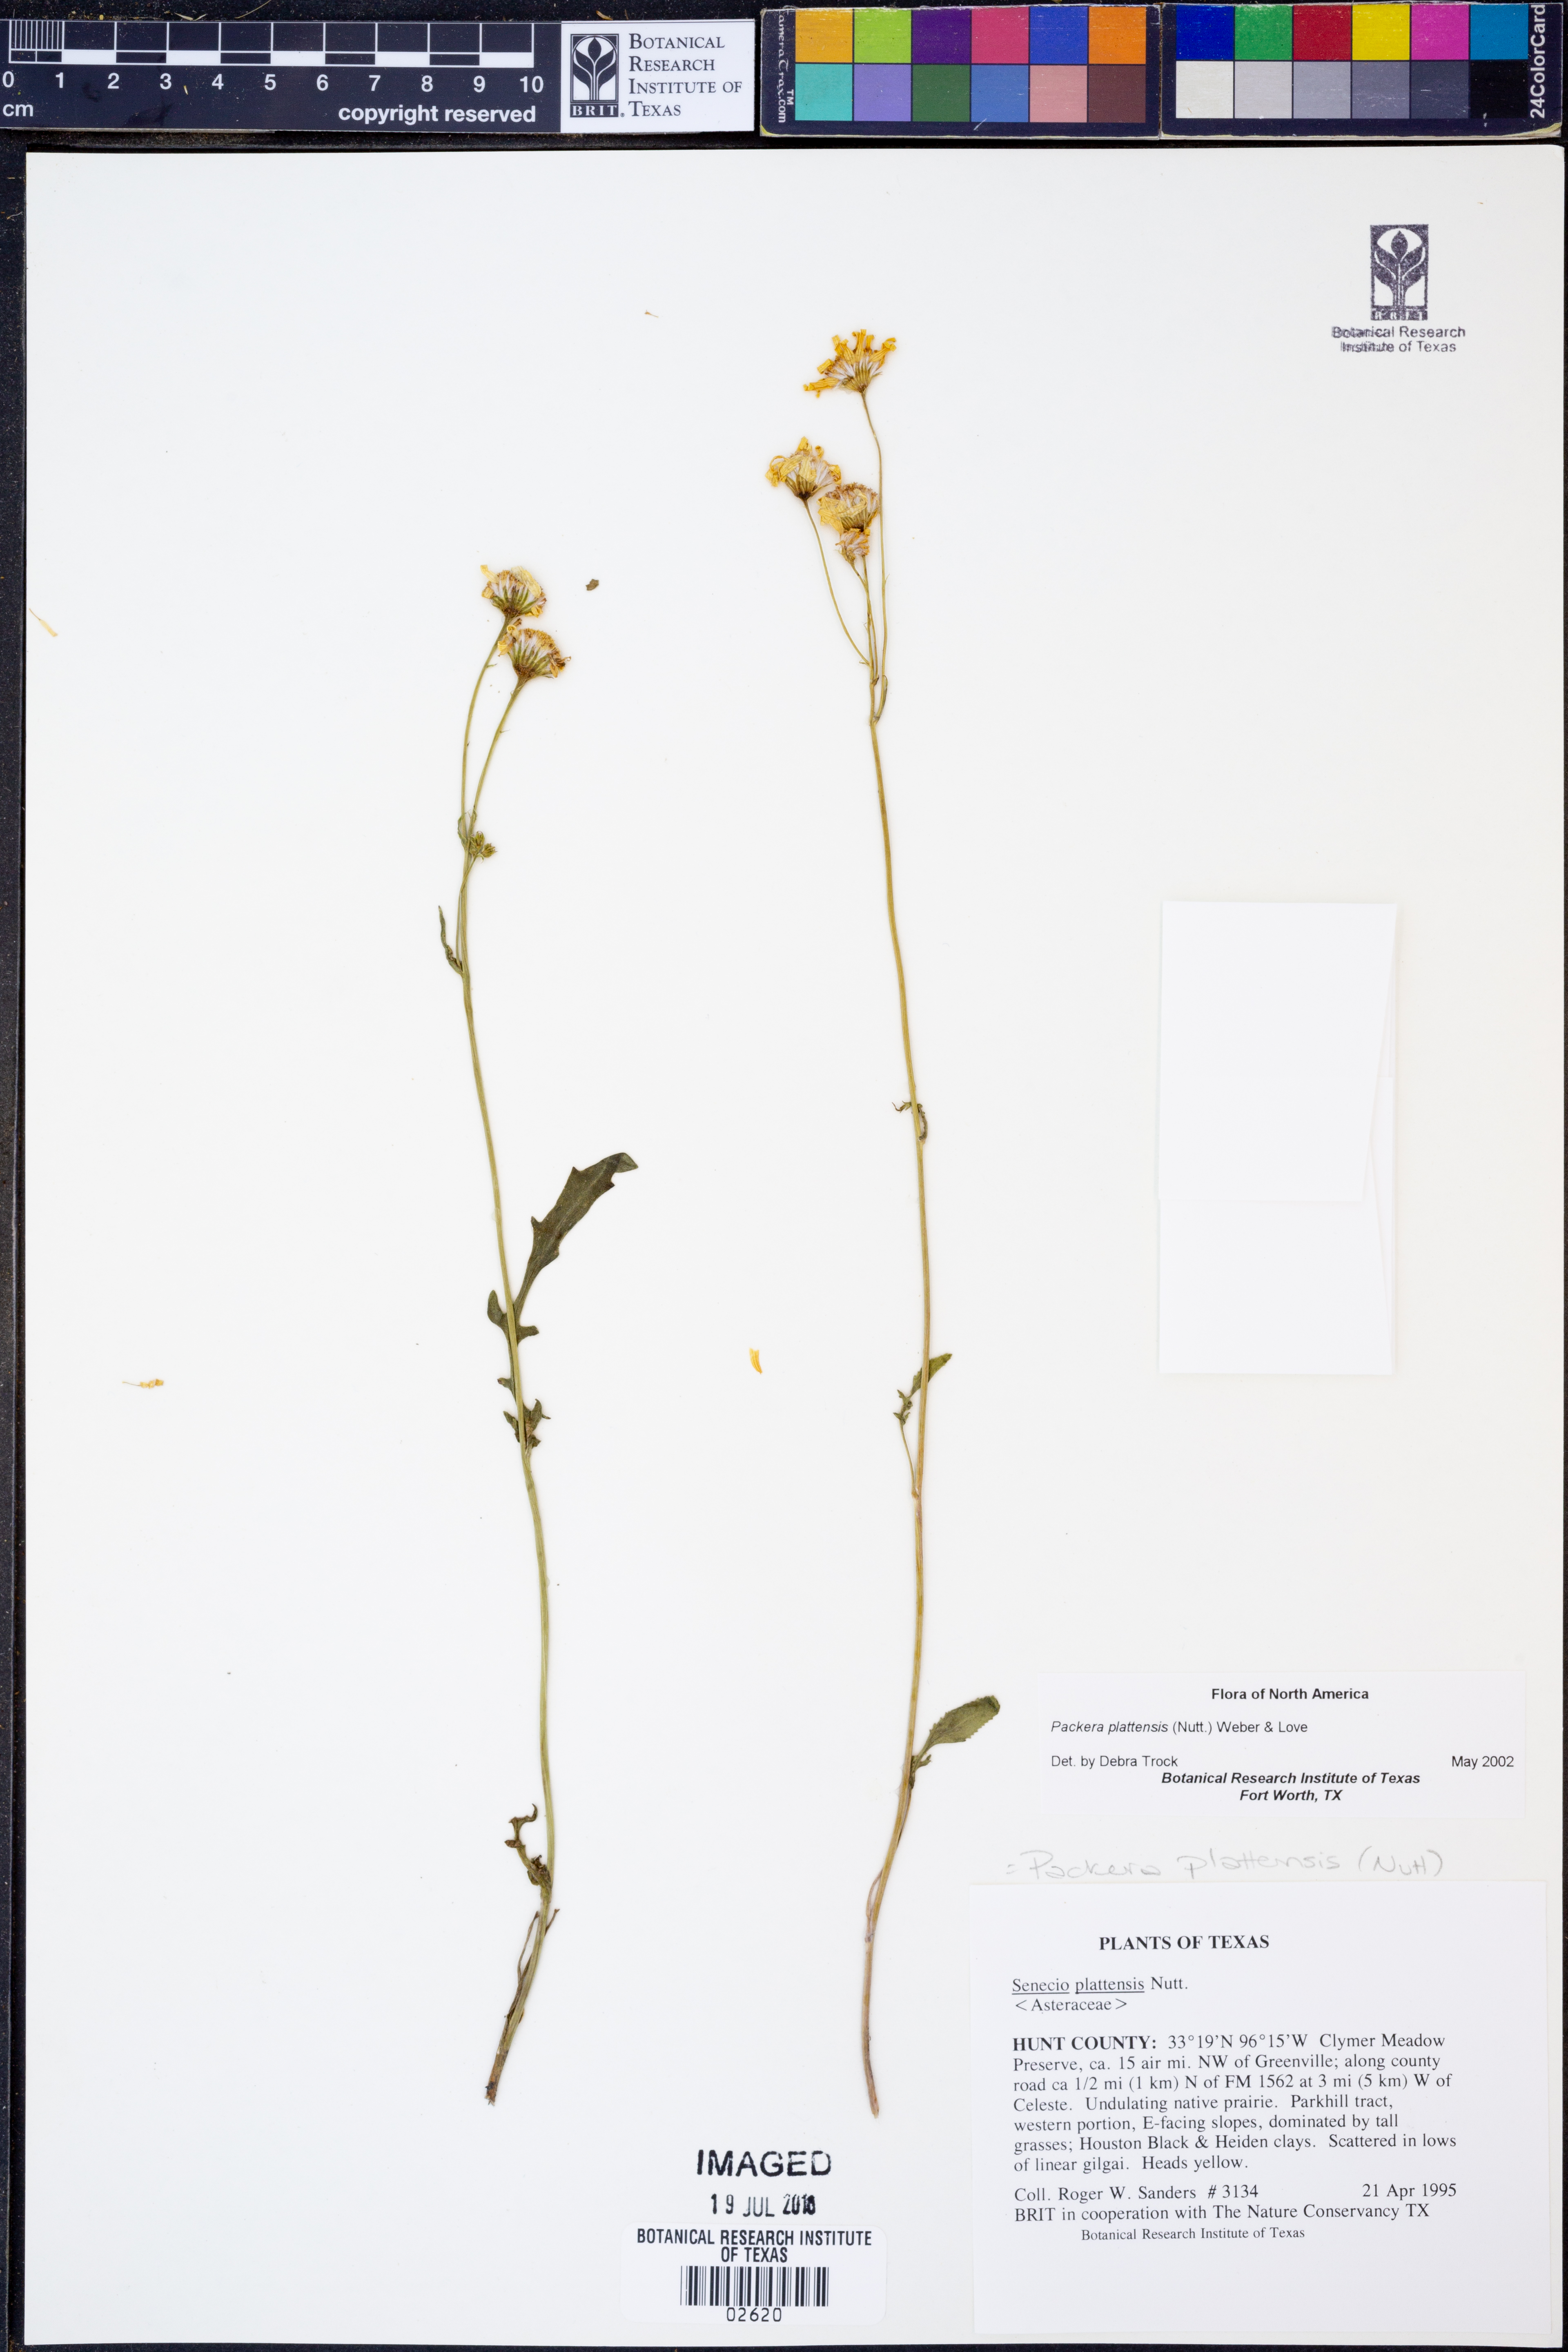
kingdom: Plantae
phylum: Tracheophyta
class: Magnoliopsida
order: Asterales
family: Asteraceae
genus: Packera
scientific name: Packera plattensis
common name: Prairie groundsel
